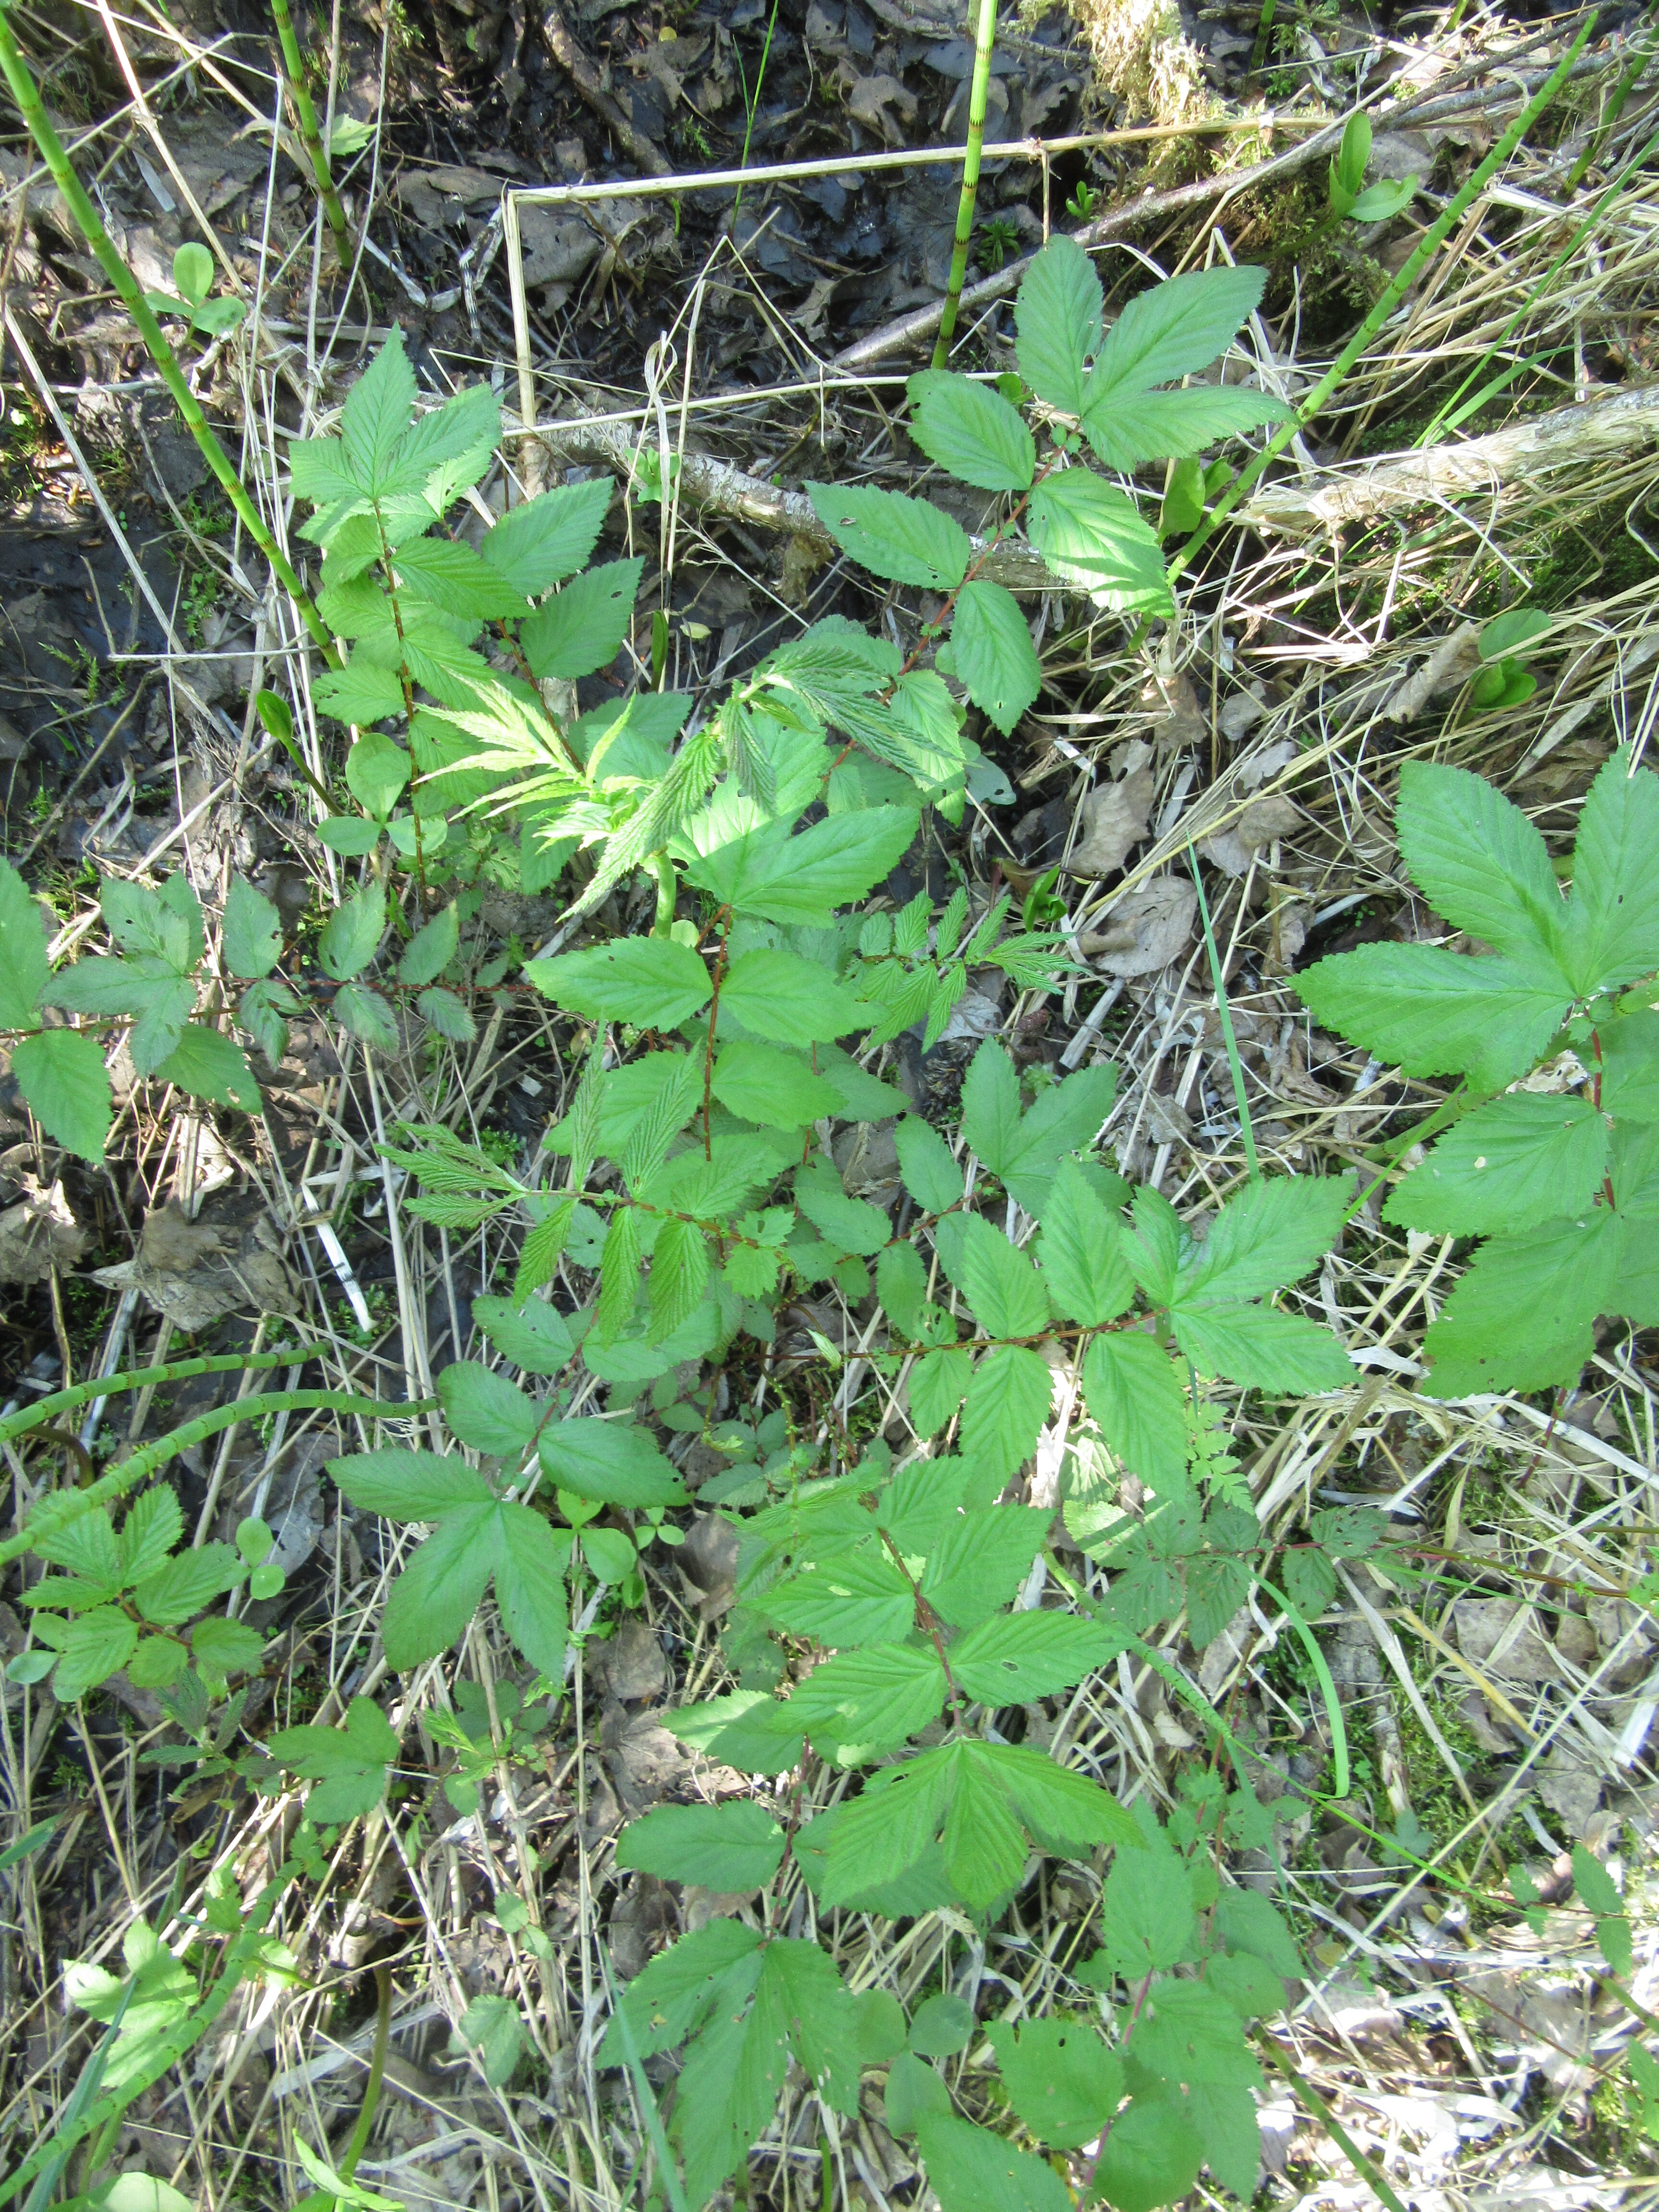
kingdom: Plantae
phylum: Tracheophyta
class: Magnoliopsida
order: Rosales
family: Rosaceae
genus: Filipendula
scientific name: Filipendula ulmaria
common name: Meadowsweet
